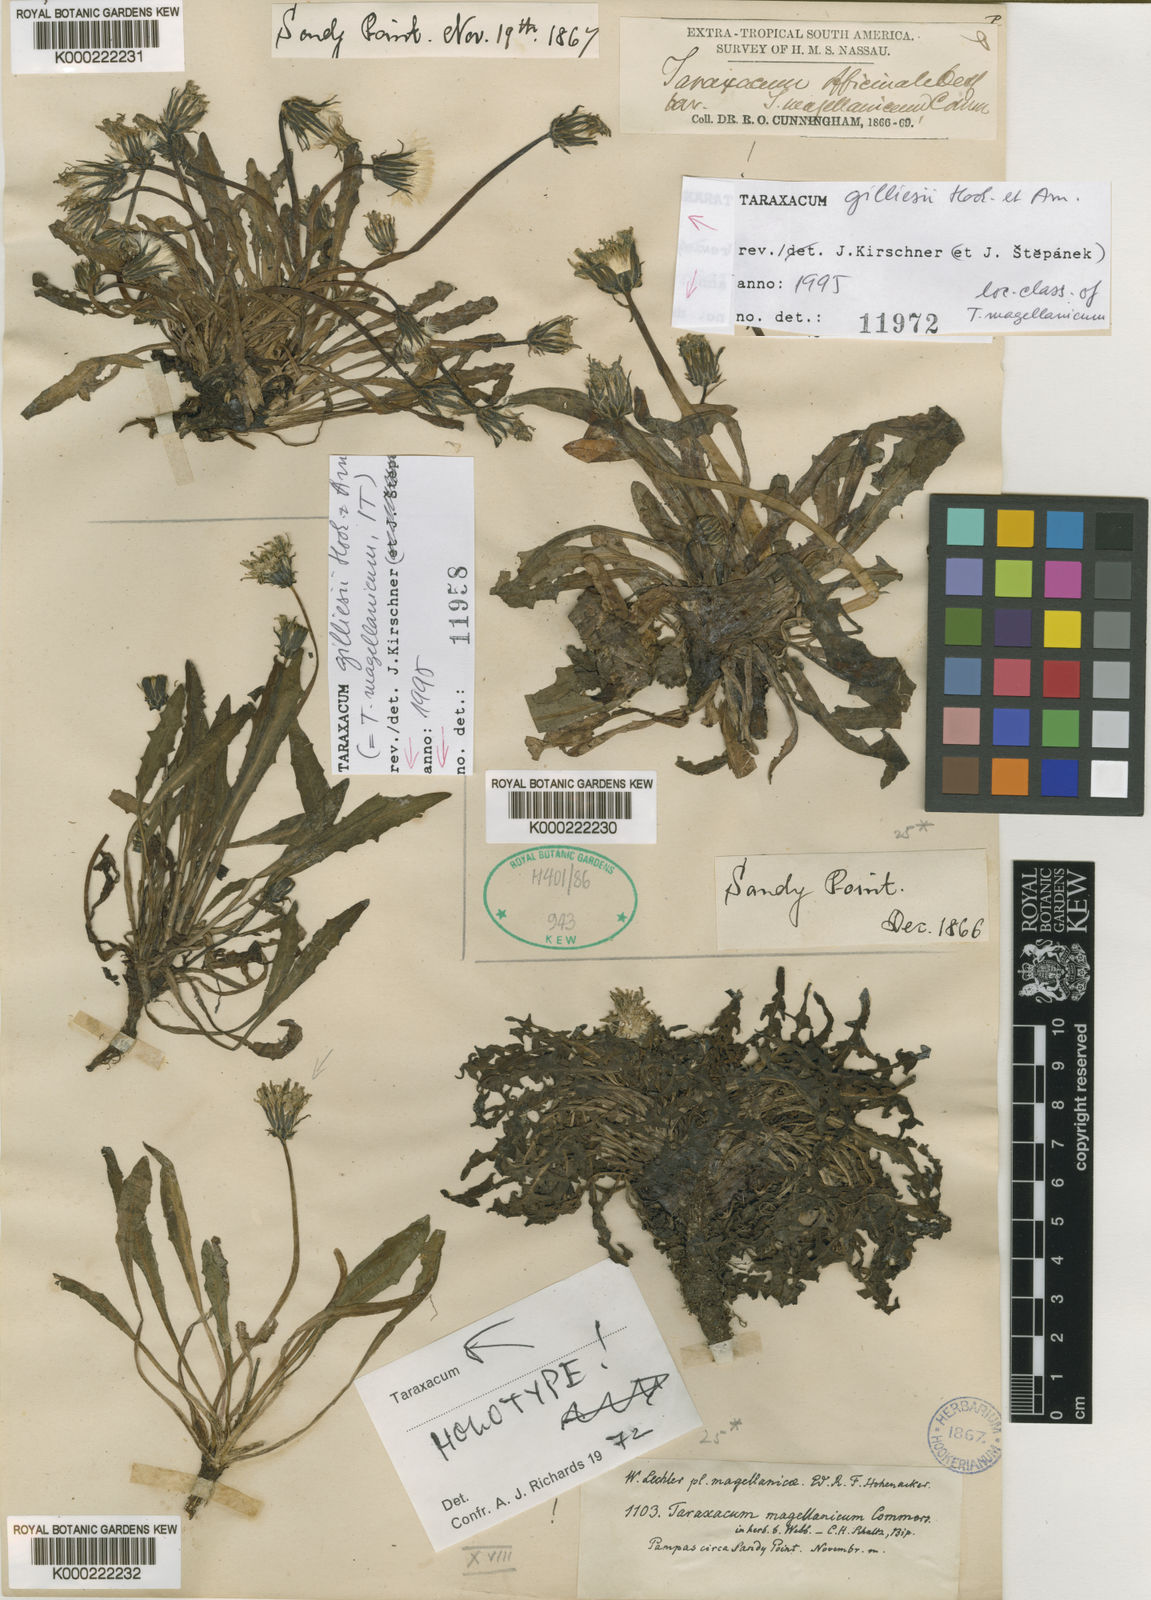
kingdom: Plantae
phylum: Tracheophyta
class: Magnoliopsida
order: Asterales
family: Asteraceae
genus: Taraxacum
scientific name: Taraxacum
